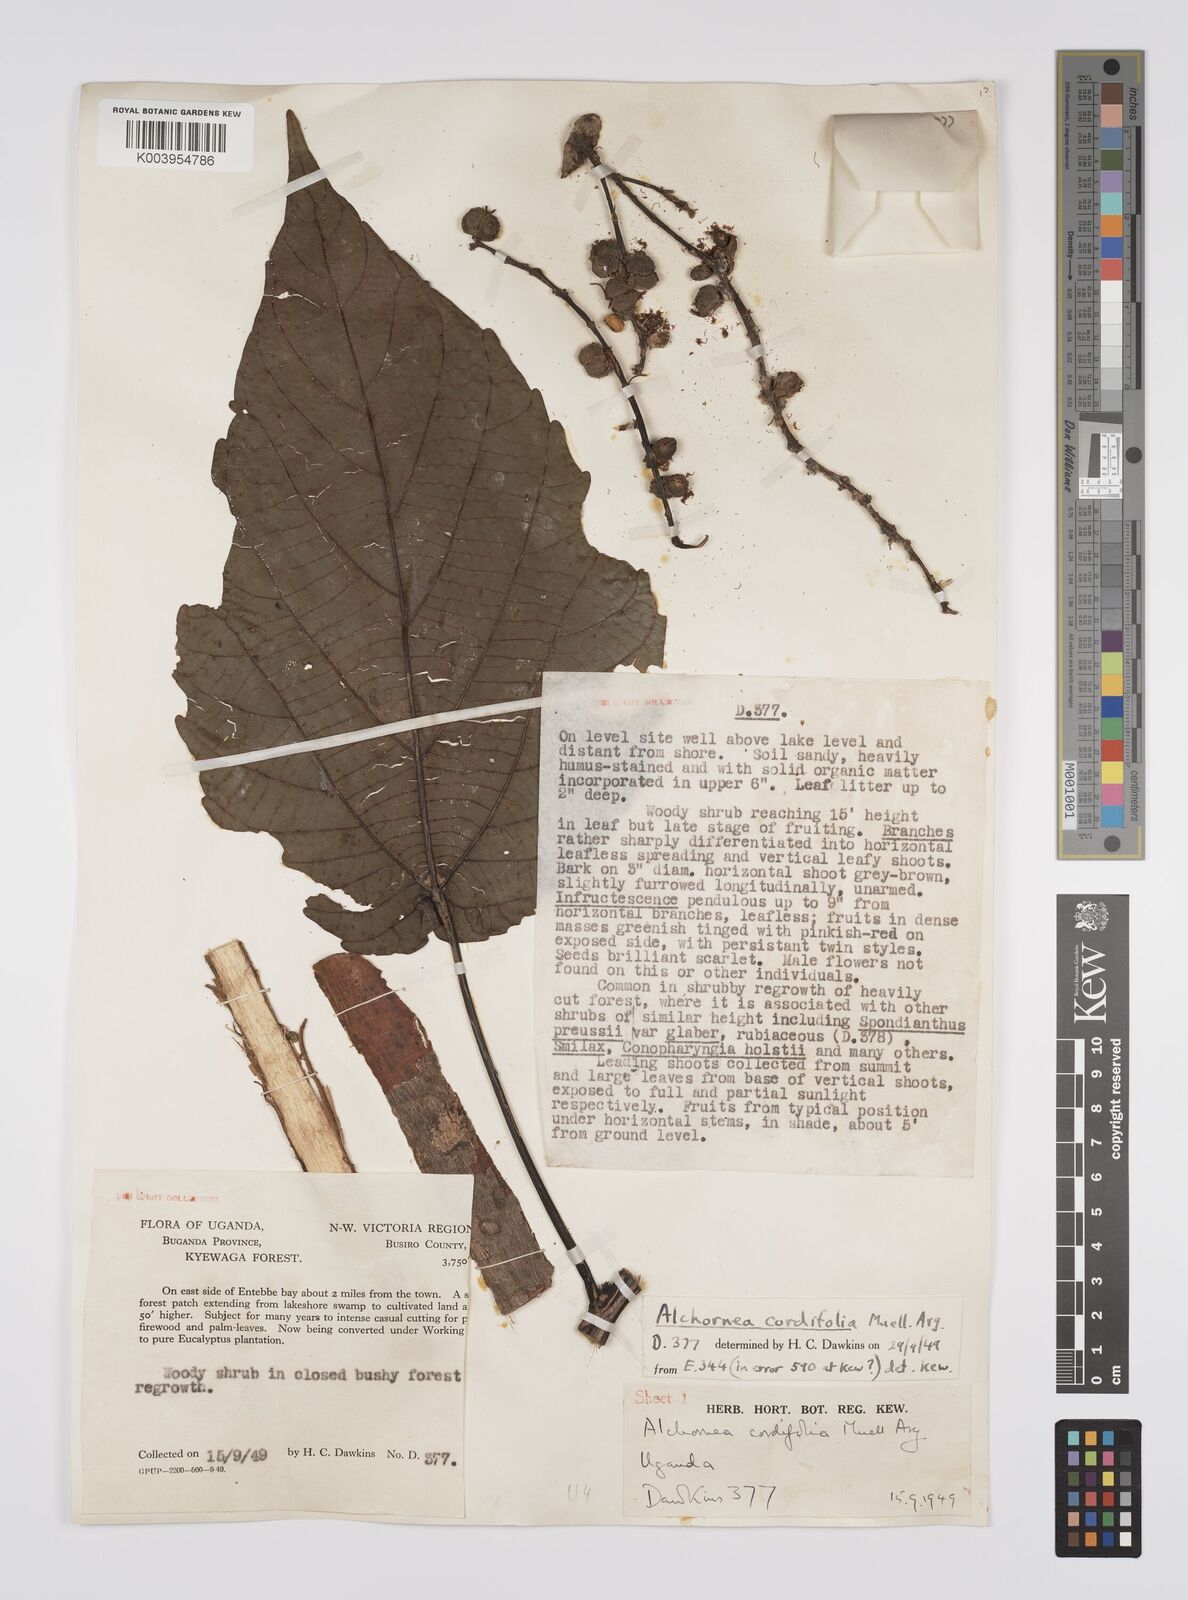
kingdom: Plantae
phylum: Tracheophyta
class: Magnoliopsida
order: Malpighiales
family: Euphorbiaceae
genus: Alchornea
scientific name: Alchornea cordifolia
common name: Christmasbush
